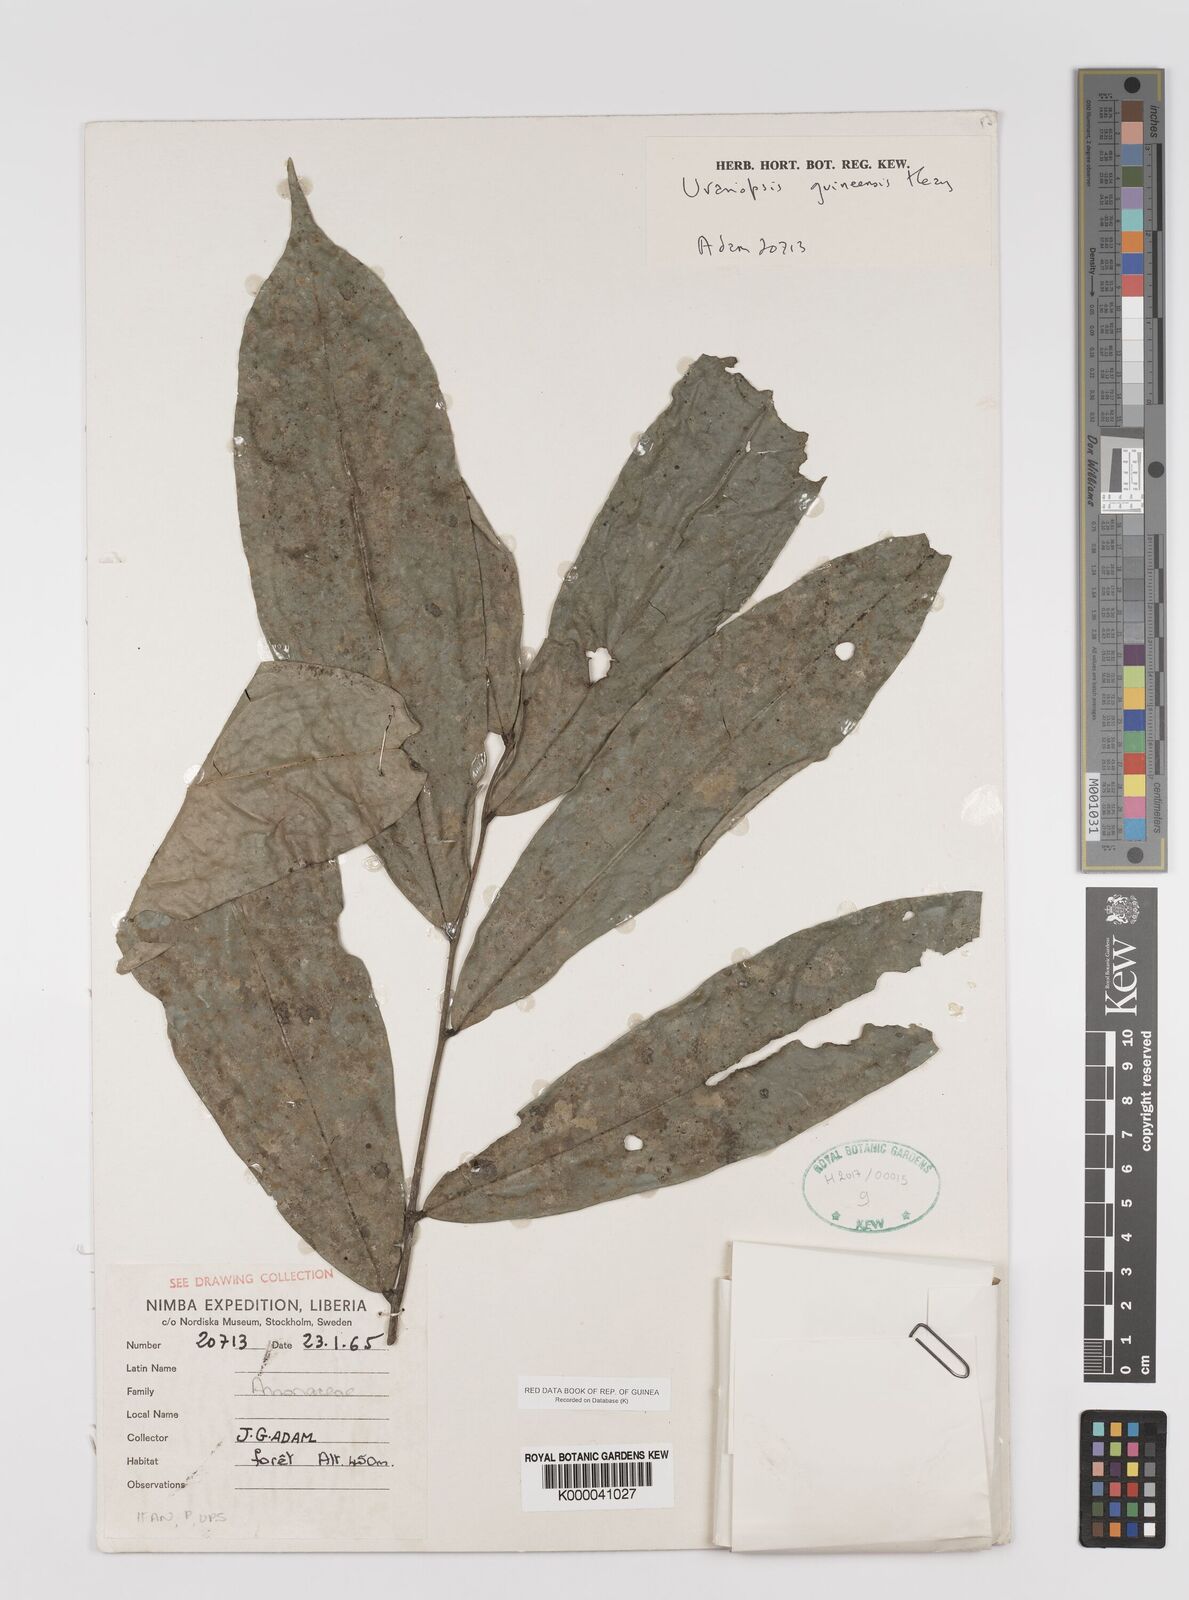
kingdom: Plantae
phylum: Tracheophyta
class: Magnoliopsida
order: Magnoliales
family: Annonaceae
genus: Uvariopsis
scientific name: Uvariopsis guineensis
